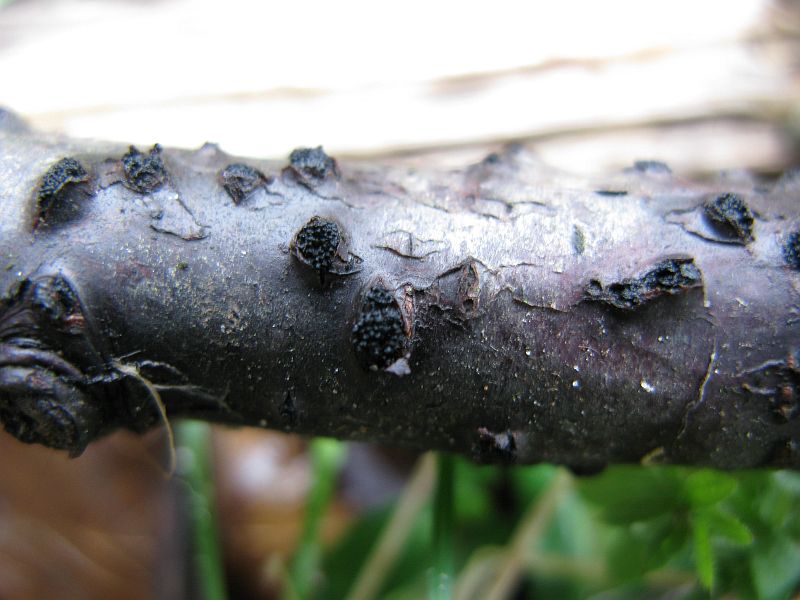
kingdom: Fungi
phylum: Ascomycota
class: Sordariomycetes
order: Xylariales
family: Diatrypaceae
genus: Eutypella
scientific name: Eutypella prunastri
